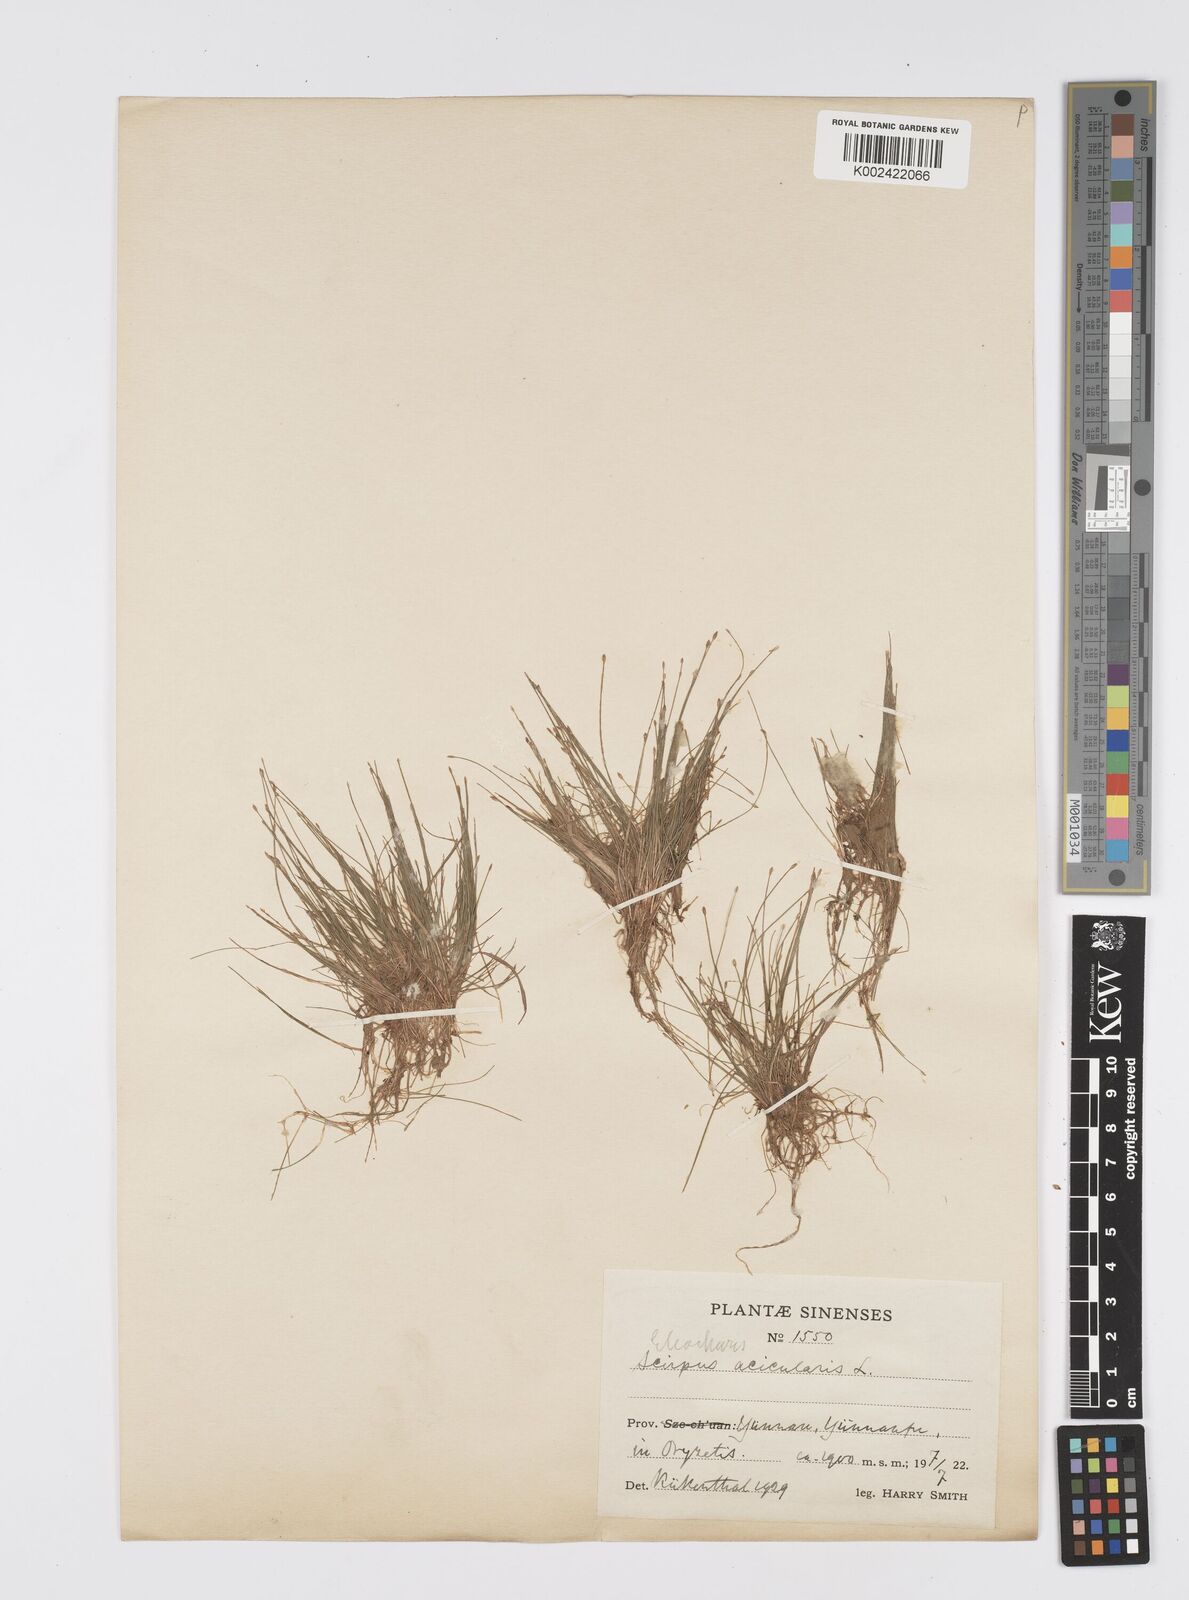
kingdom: Plantae
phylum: Tracheophyta
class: Liliopsida
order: Poales
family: Cyperaceae
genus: Eleocharis
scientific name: Eleocharis acicularis
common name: Needle spike-rush
